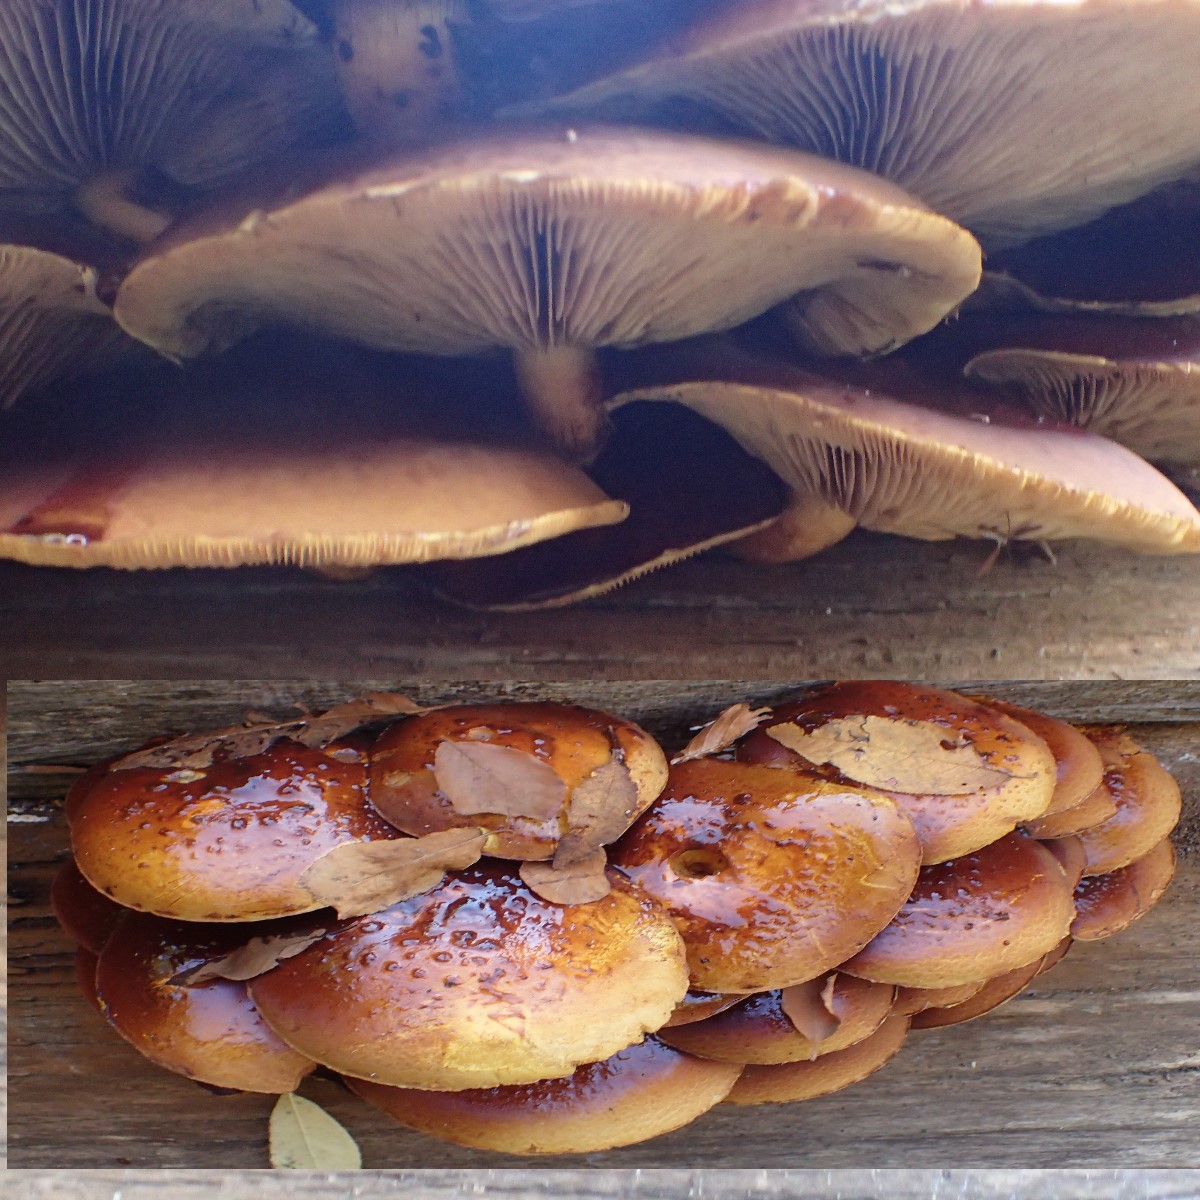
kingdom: Fungi
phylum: Basidiomycota
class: Agaricomycetes
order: Agaricales
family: Strophariaceae
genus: Pholiota
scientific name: Pholiota adiposa
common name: højtsiddende skælhat
